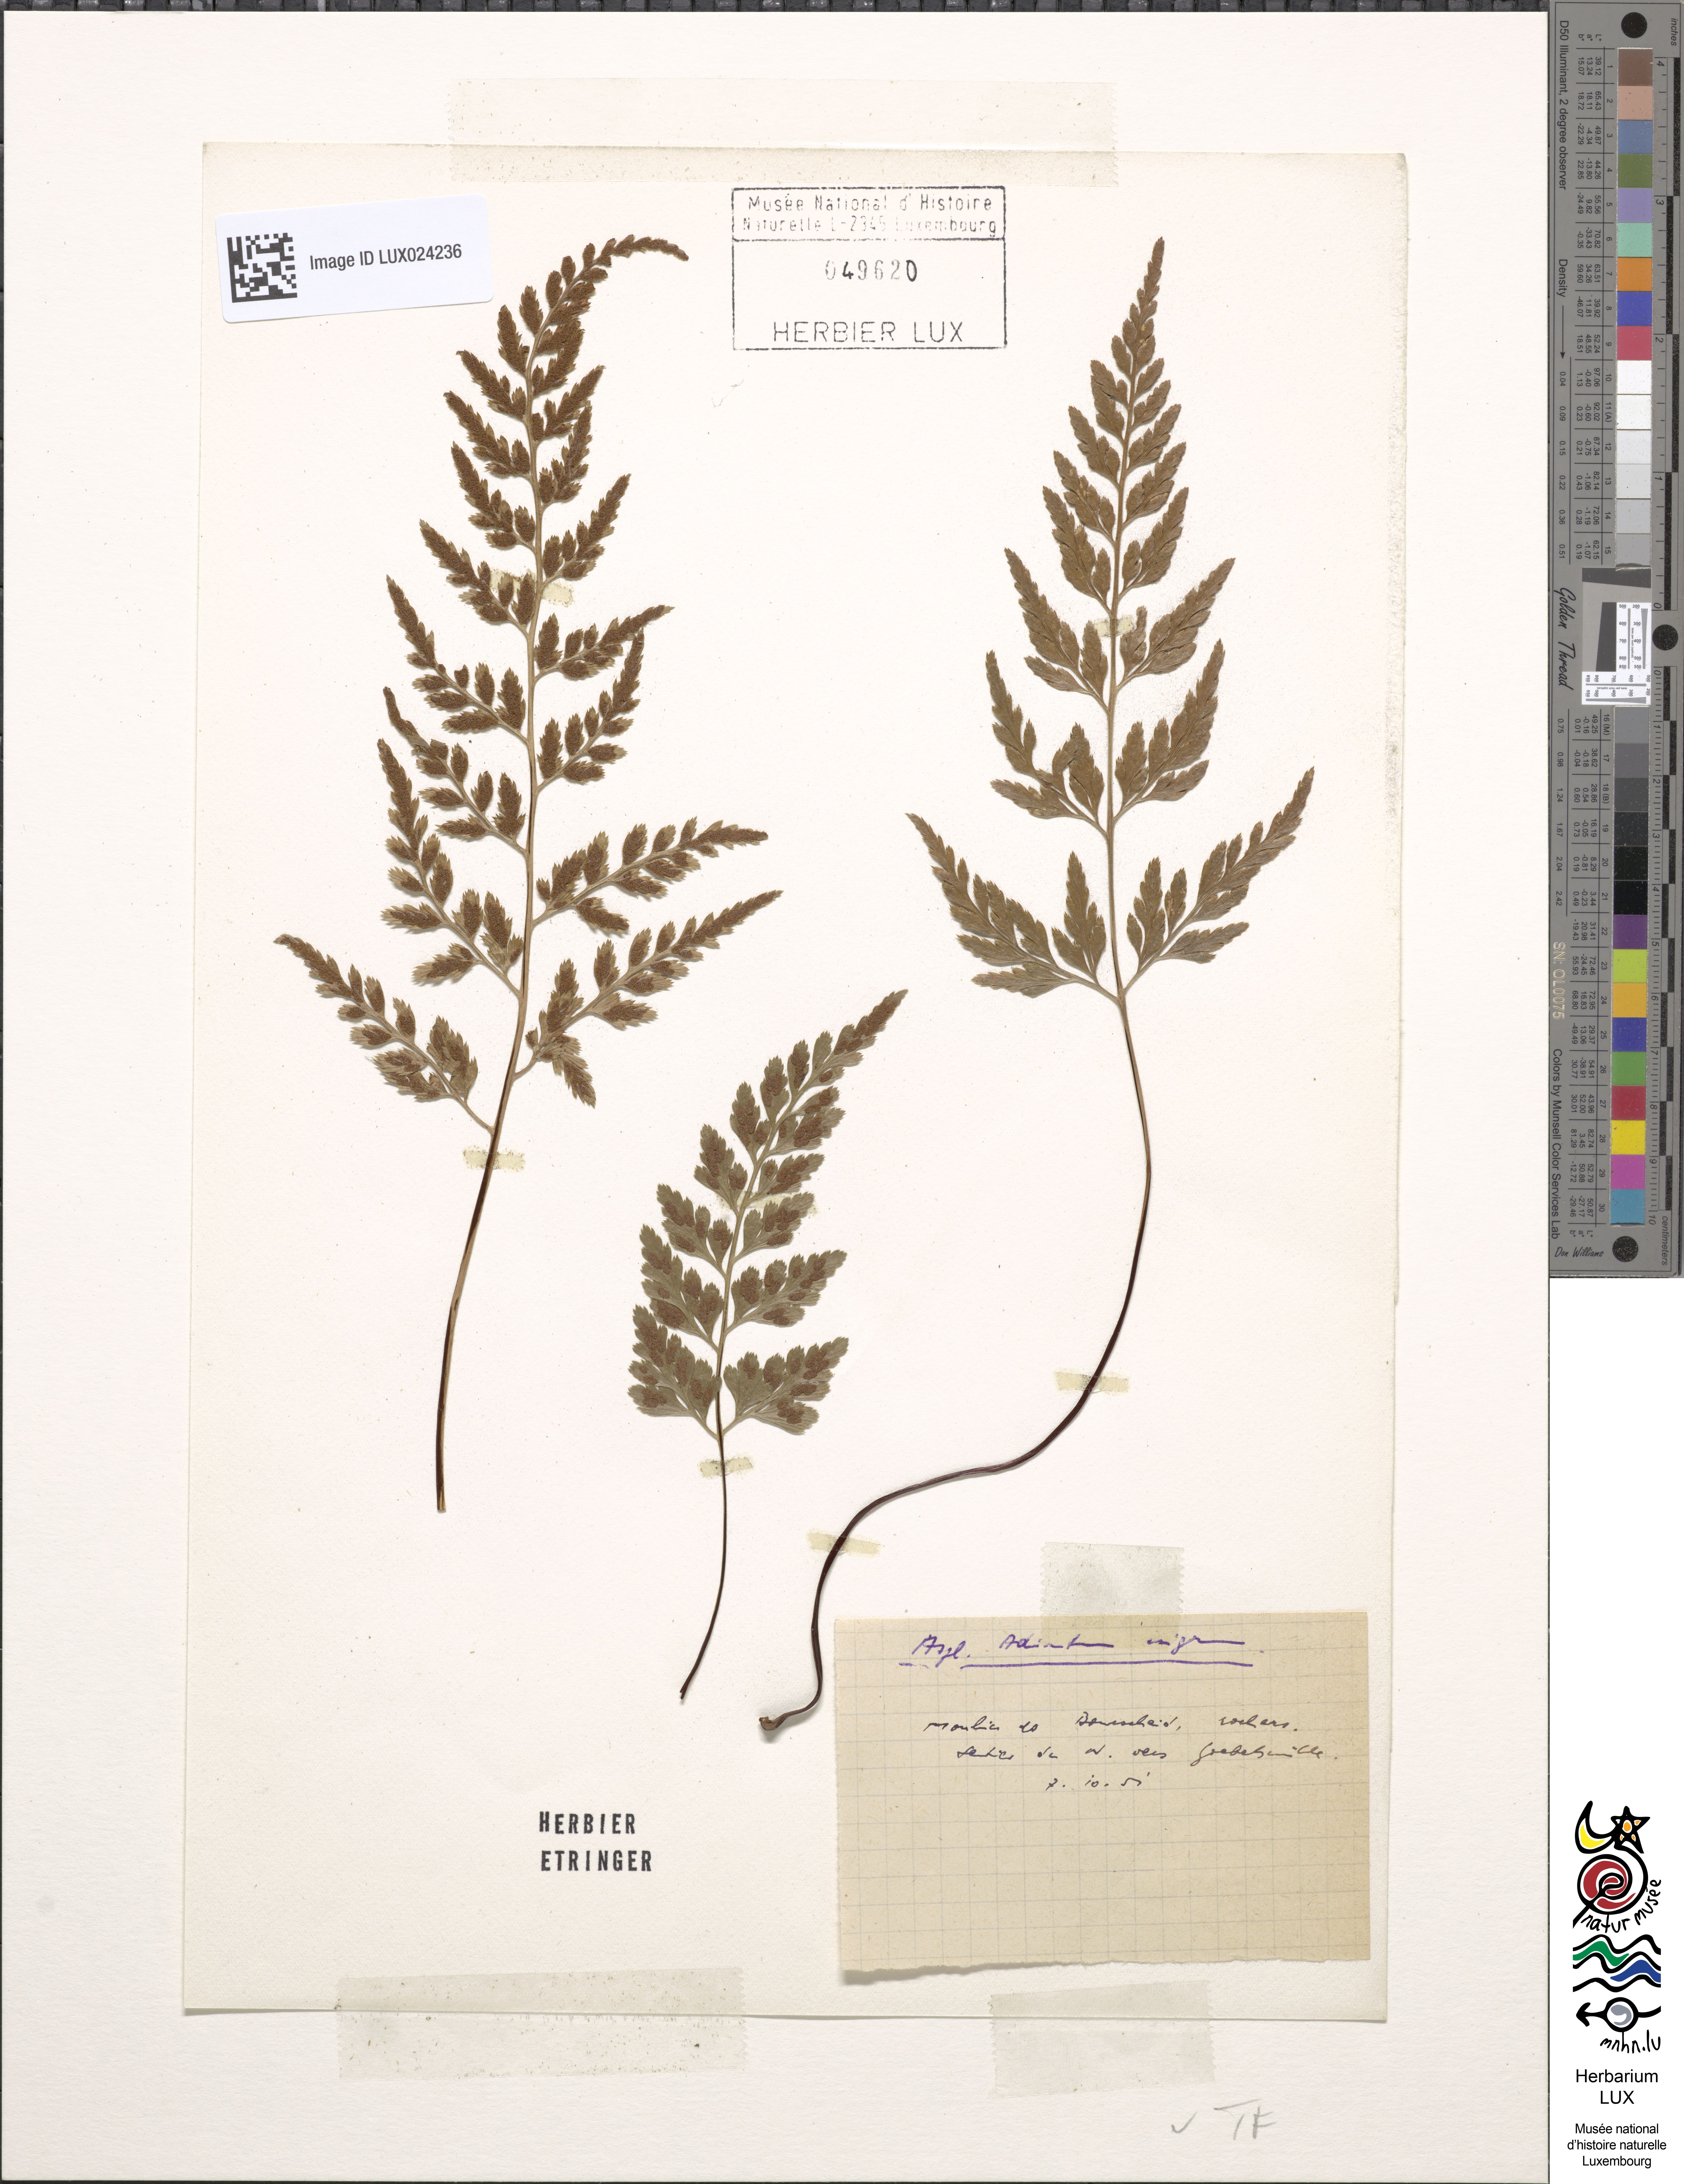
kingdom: Plantae
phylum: Tracheophyta
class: Polypodiopsida
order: Polypodiales
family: Aspleniaceae
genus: Asplenium
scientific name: Asplenium adiantum-nigrum
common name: Black spleenwort
